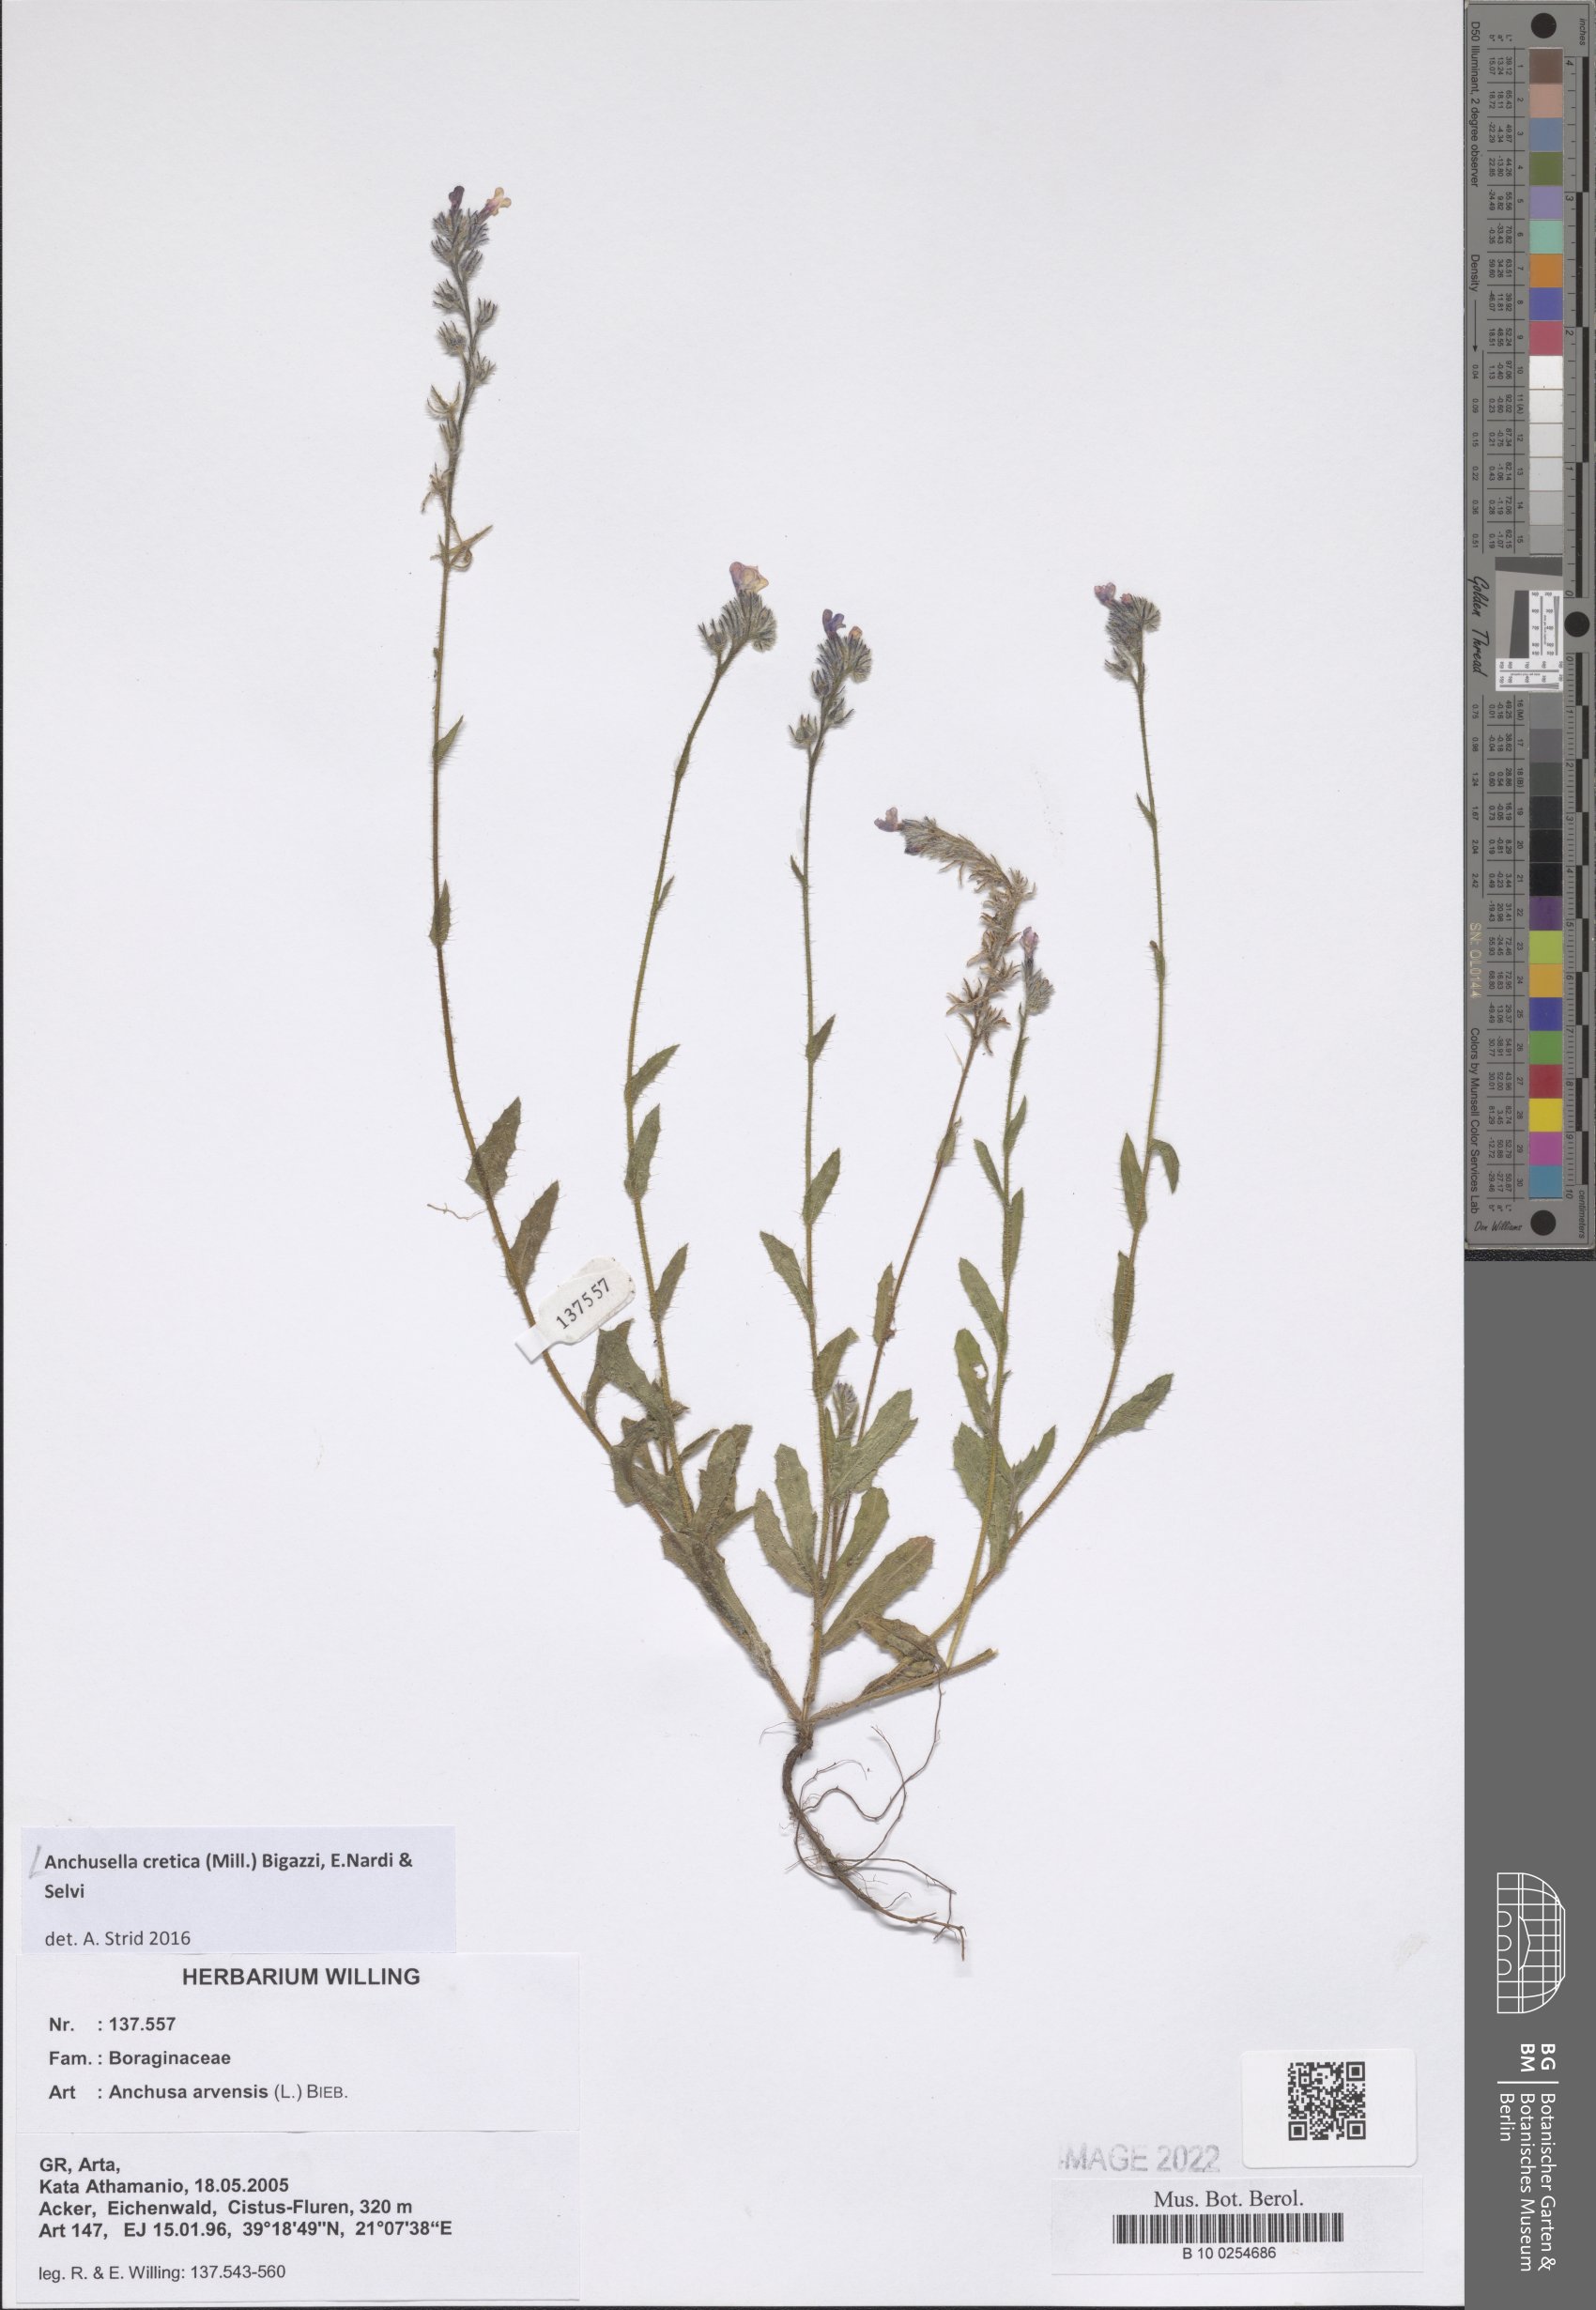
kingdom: Plantae
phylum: Tracheophyta
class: Magnoliopsida
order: Boraginales
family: Boraginaceae
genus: Anchusella
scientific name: Anchusella cretica
